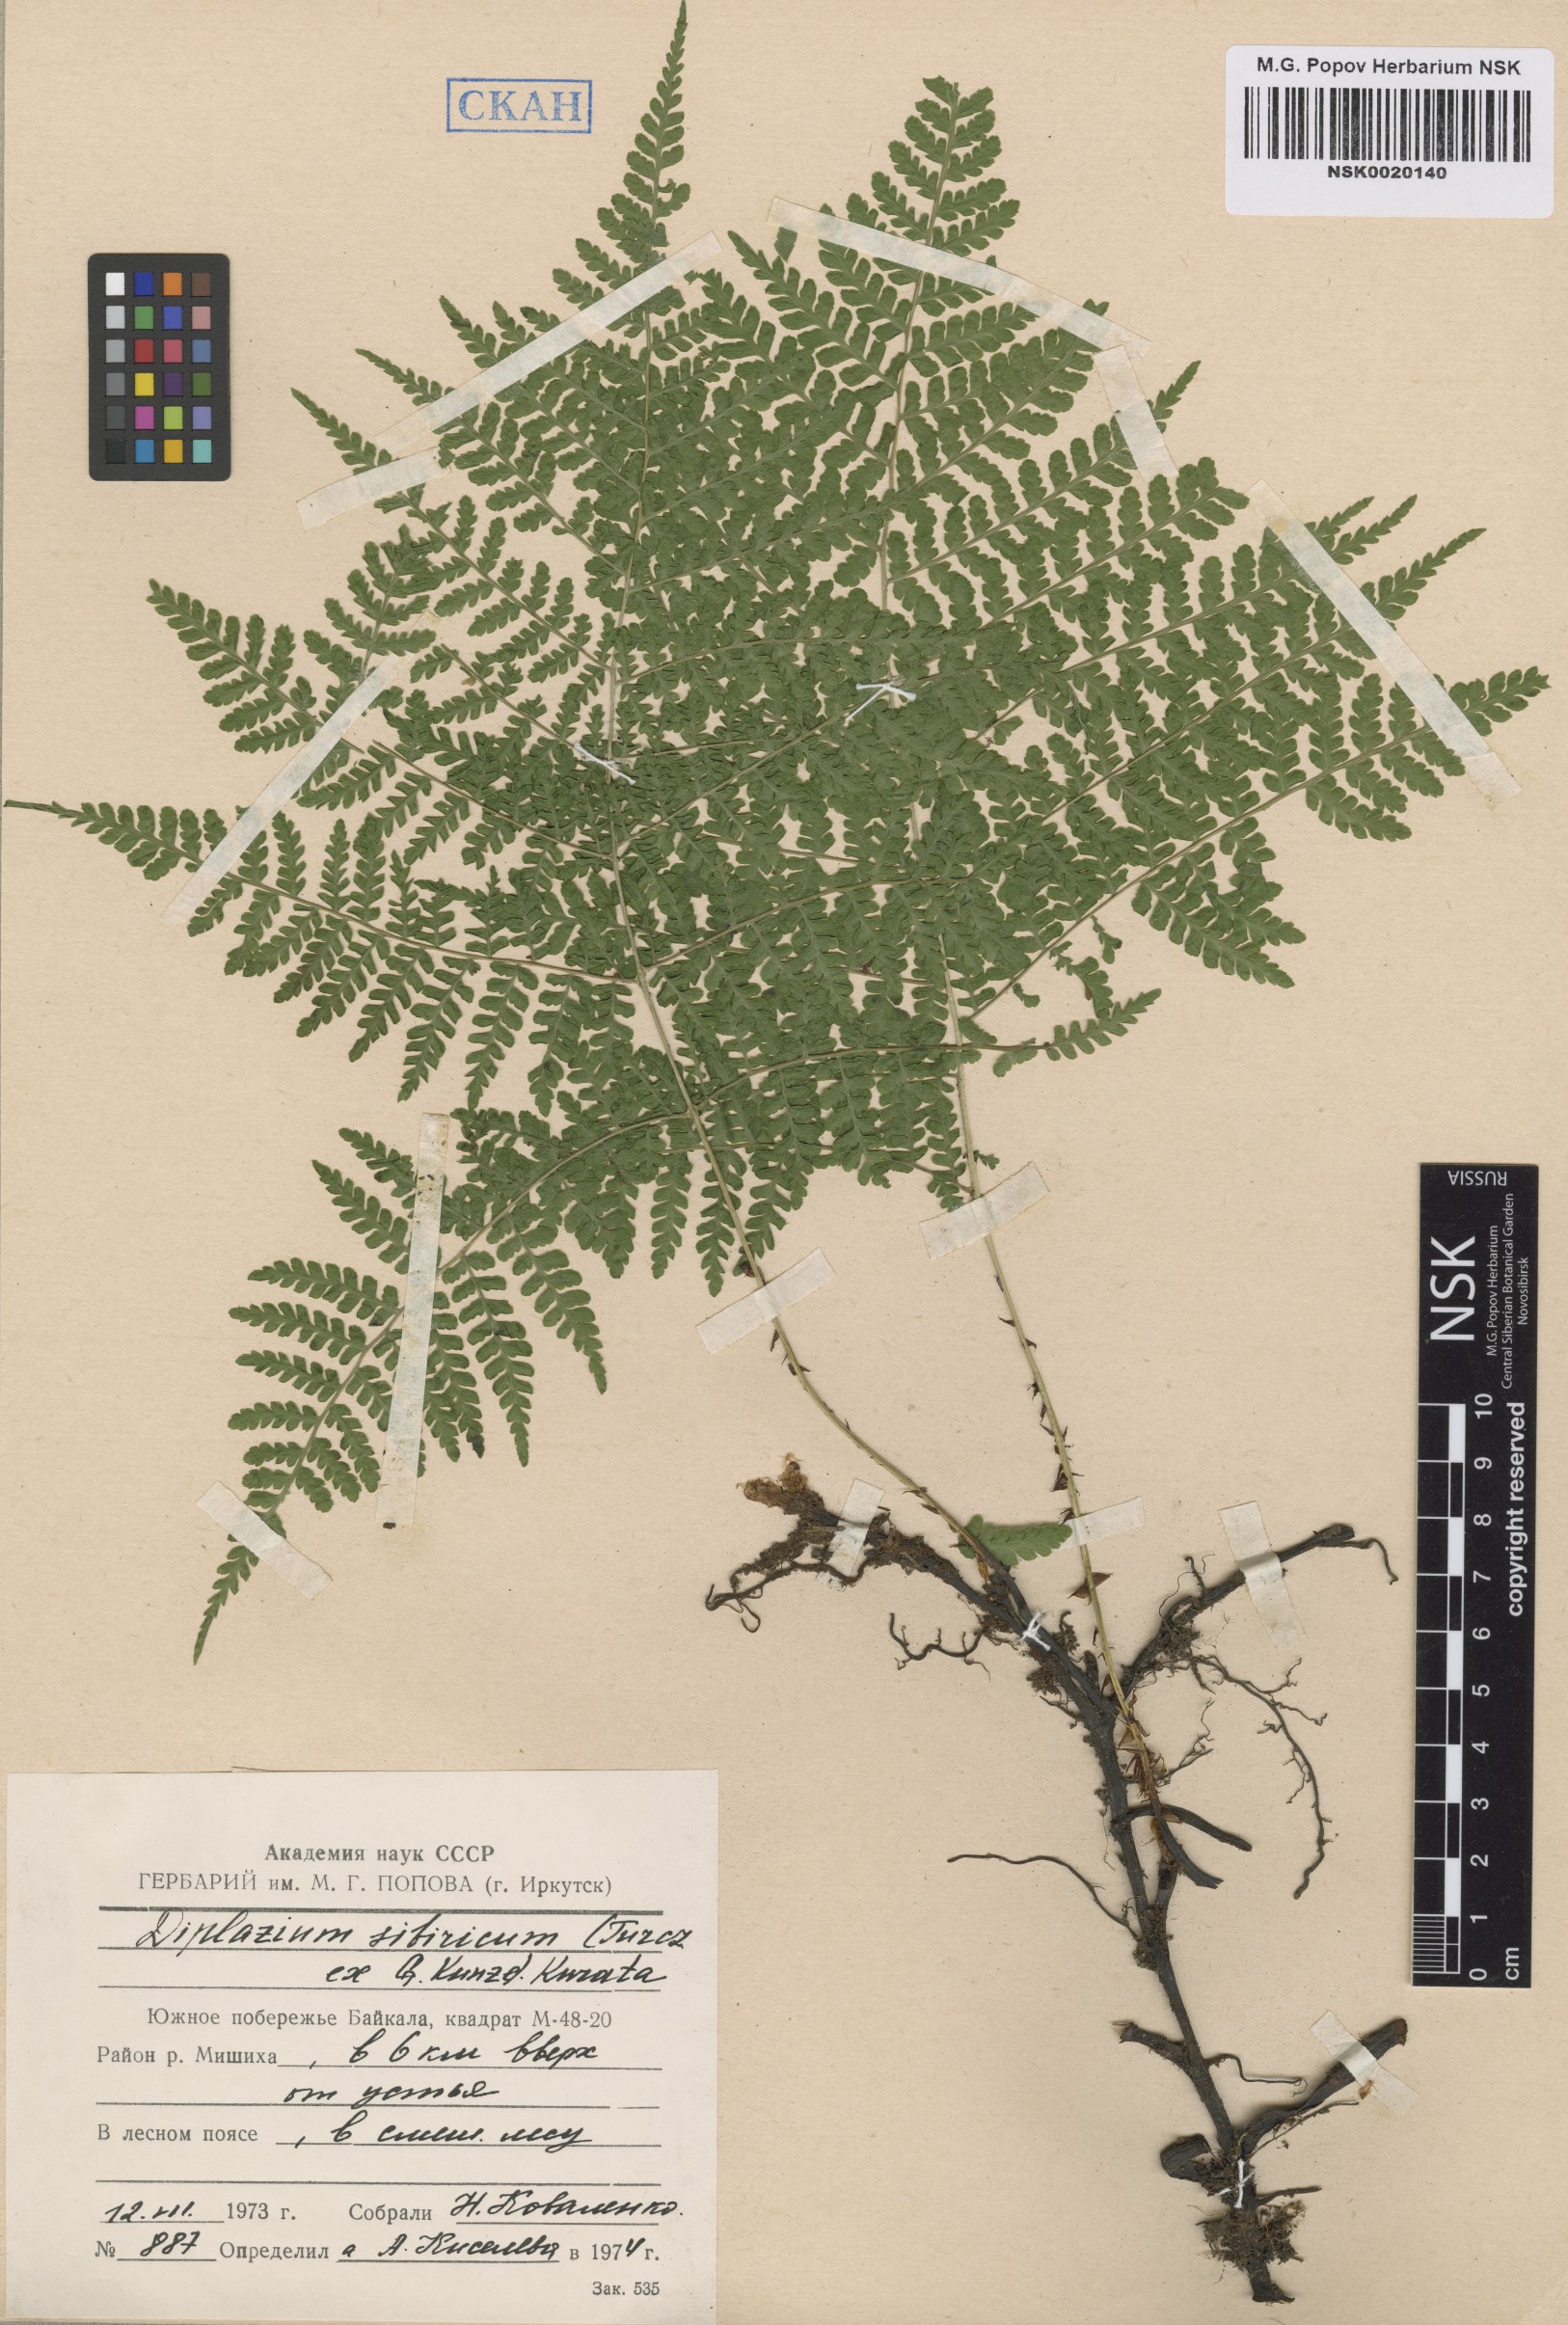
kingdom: Plantae
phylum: Tracheophyta
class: Polypodiopsida
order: Polypodiales
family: Athyriaceae
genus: Diplazium
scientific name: Diplazium sibiricum
